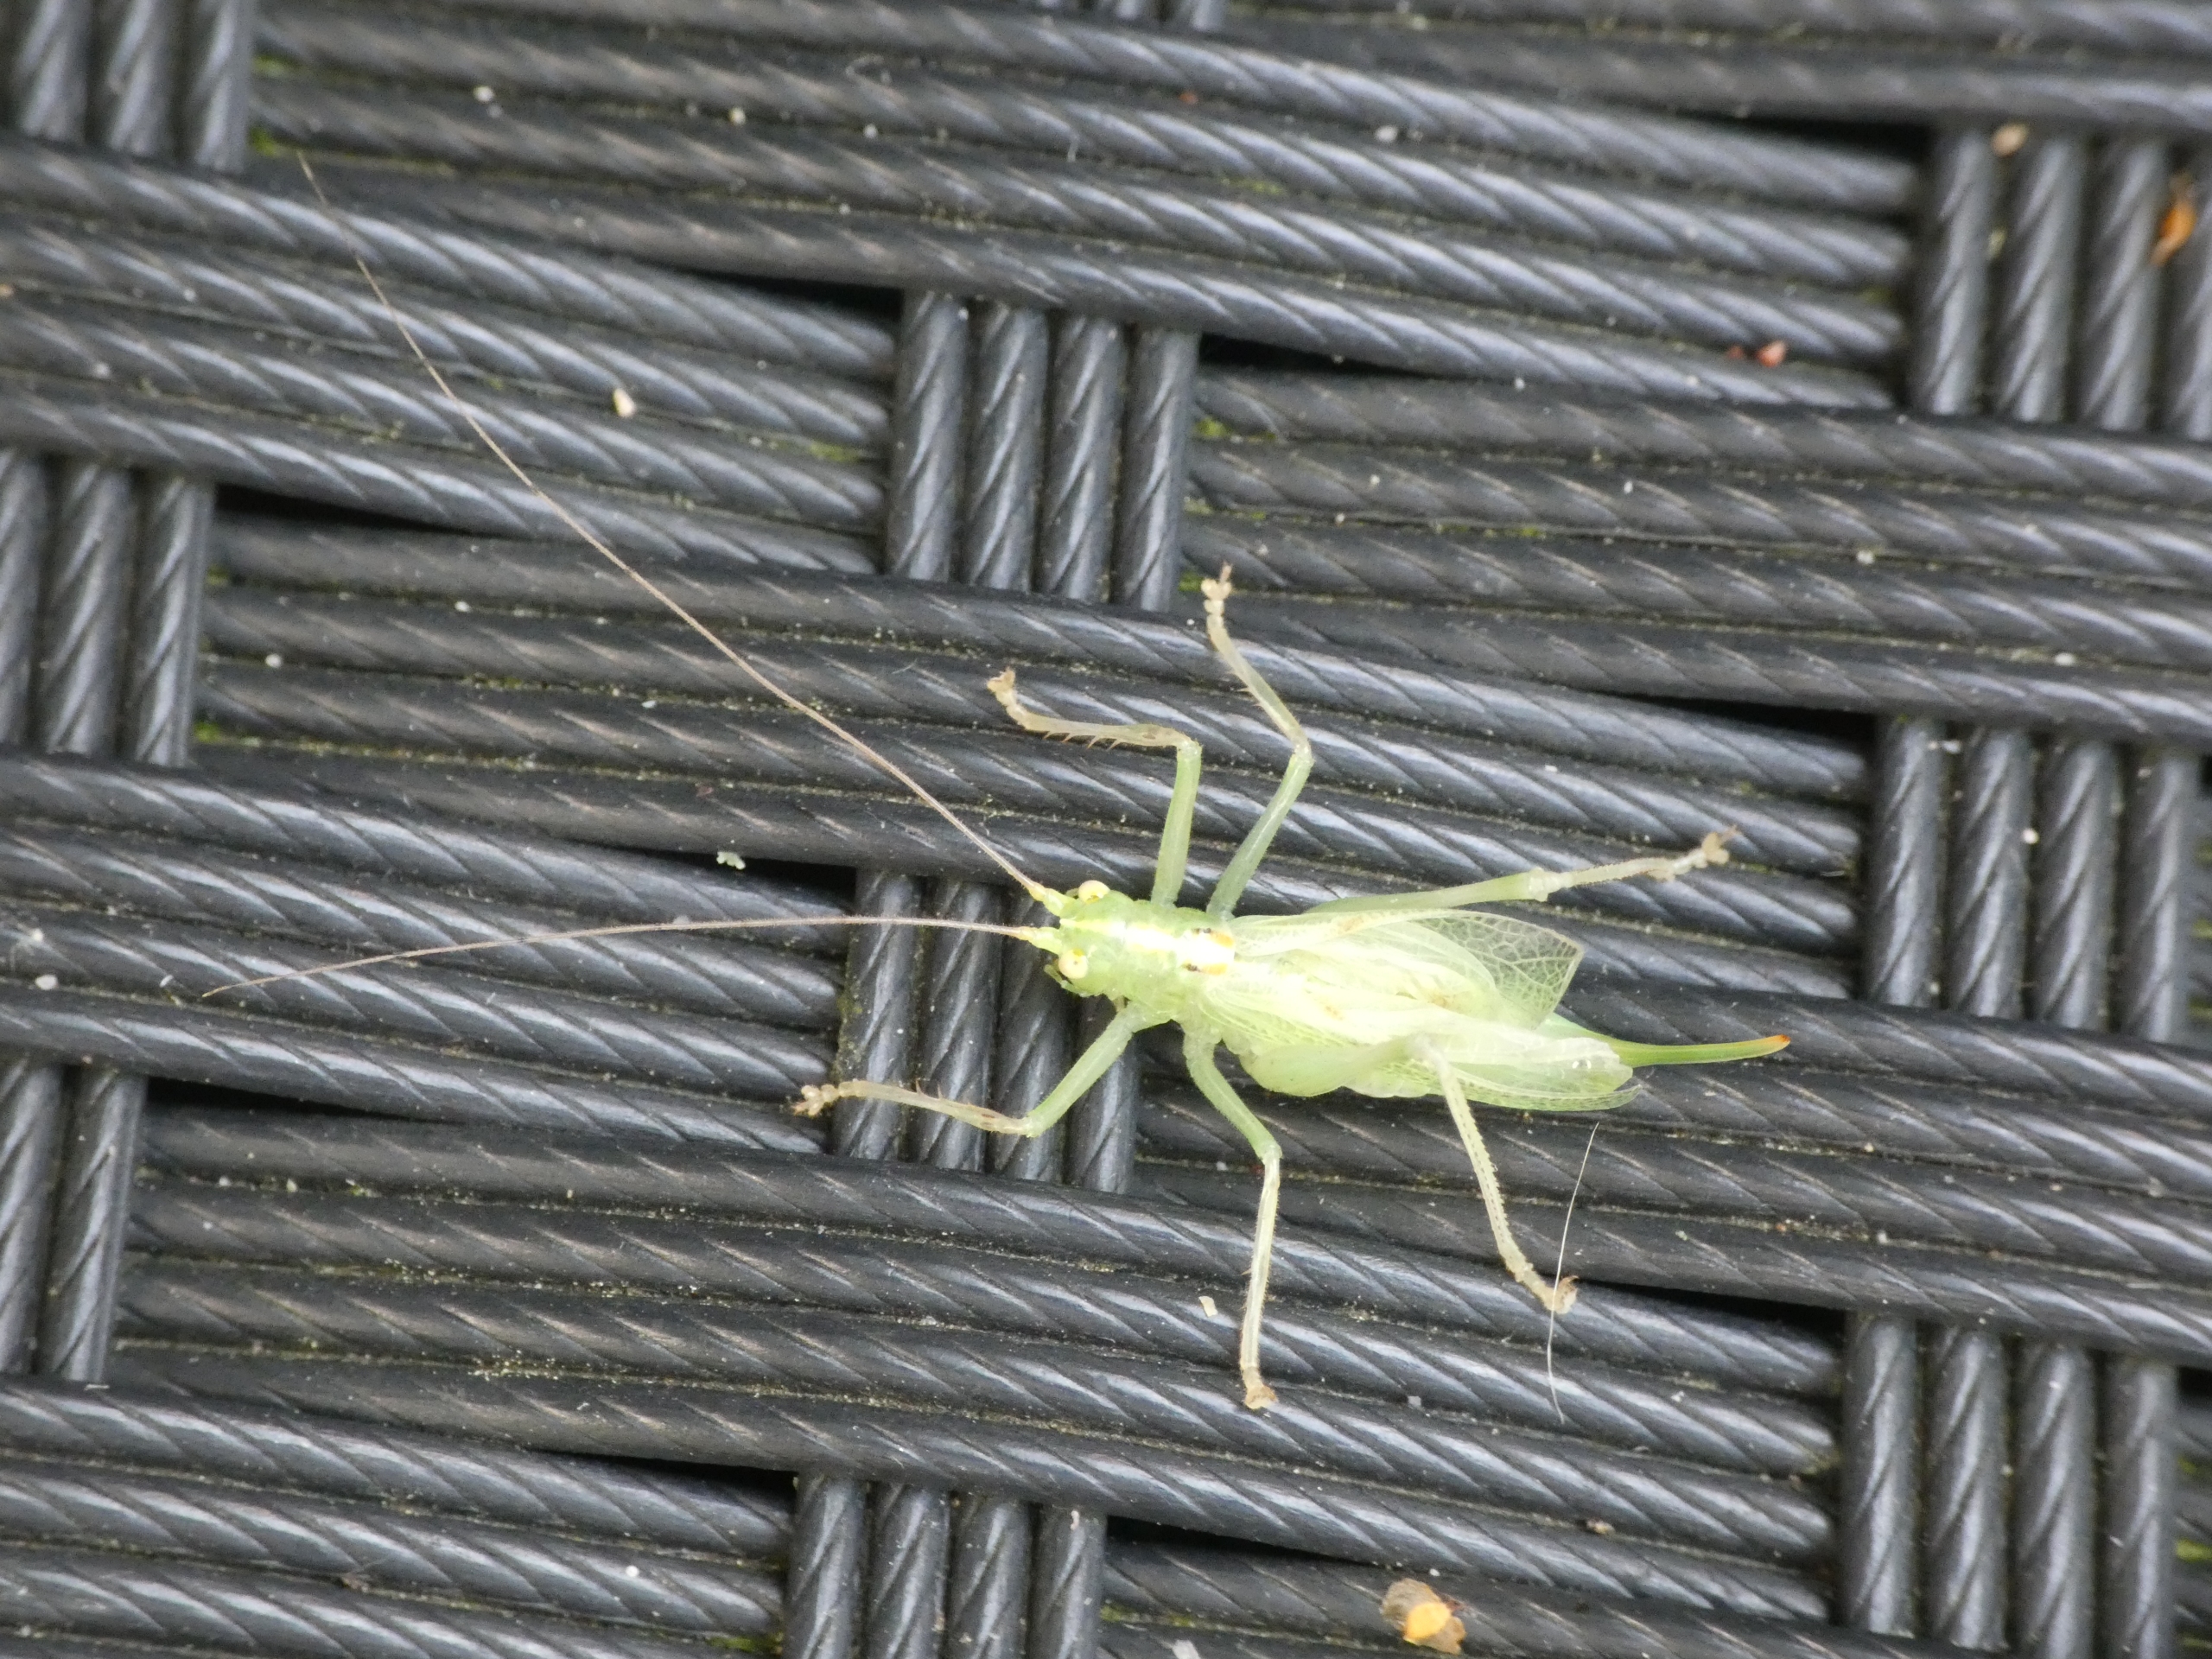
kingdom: Animalia
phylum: Arthropoda
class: Insecta
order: Orthoptera
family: Tettigoniidae
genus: Meconema
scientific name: Meconema thalassinum
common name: Egegræshoppe
